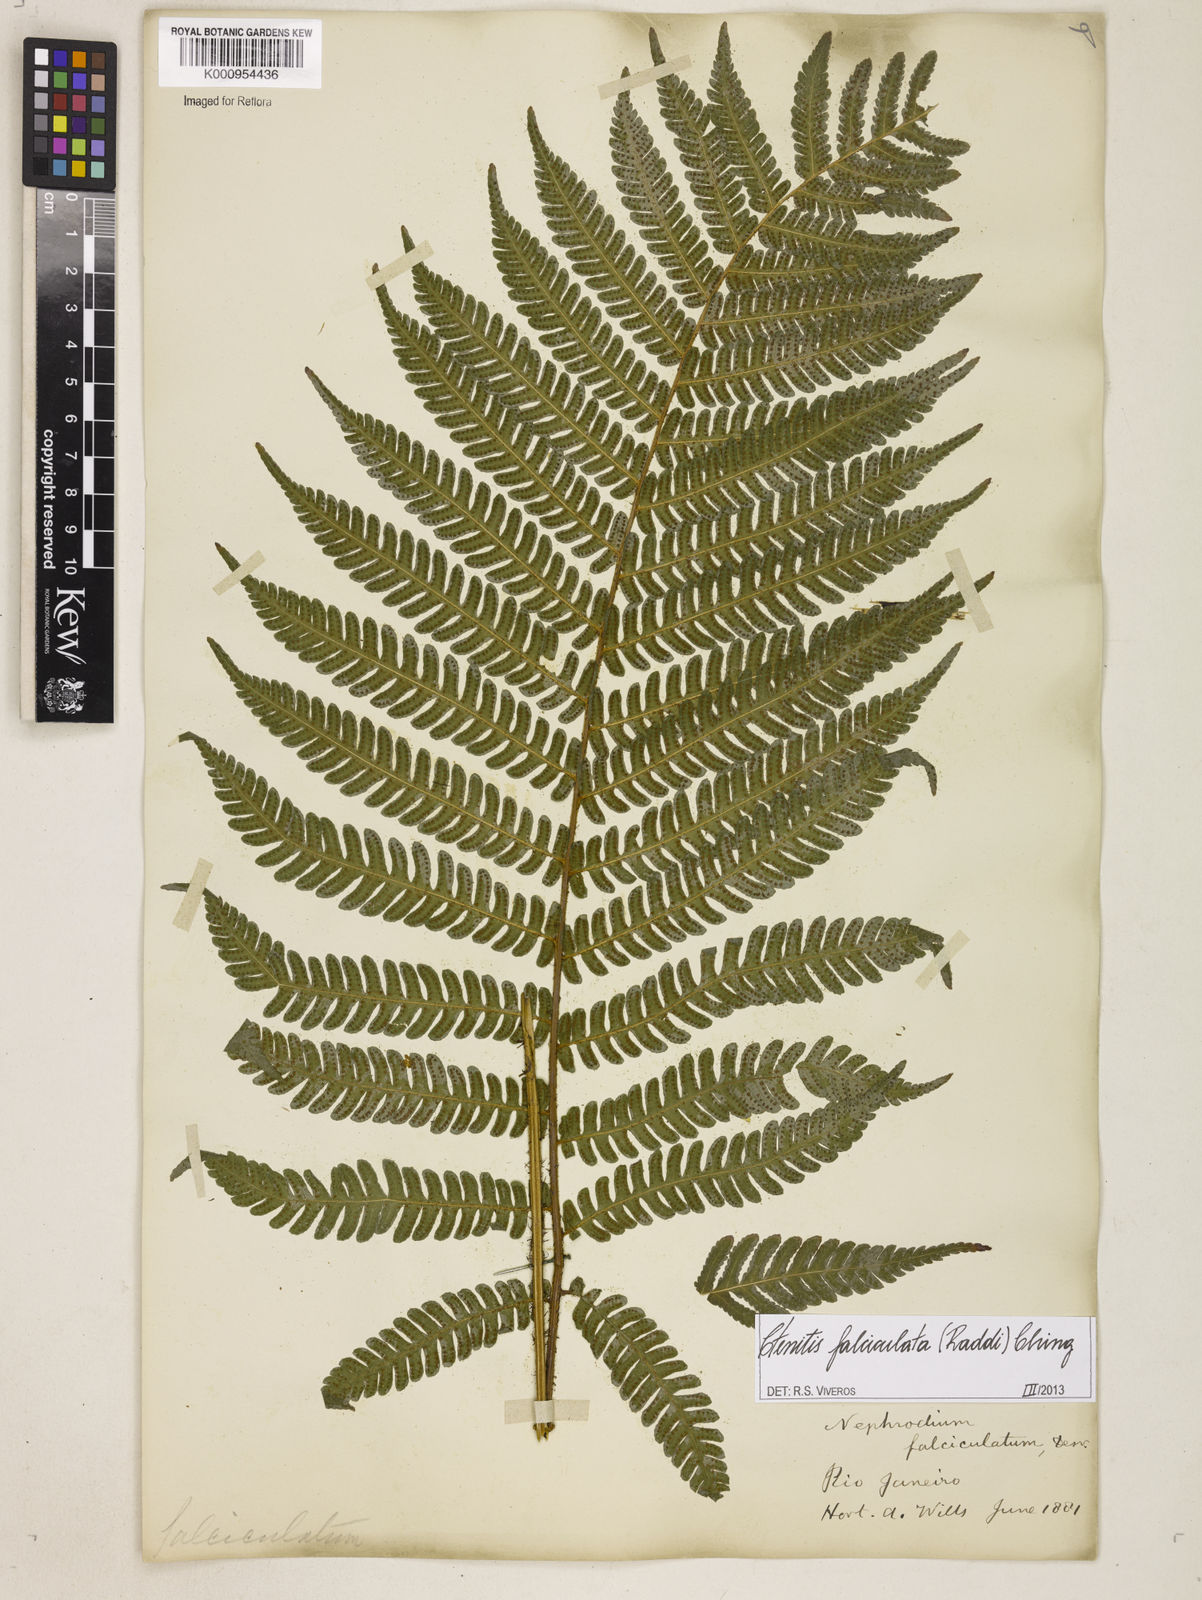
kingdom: Plantae
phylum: Tracheophyta
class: Polypodiopsida
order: Polypodiales
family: Dryopteridaceae
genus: Ctenitis
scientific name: Ctenitis falciculata
